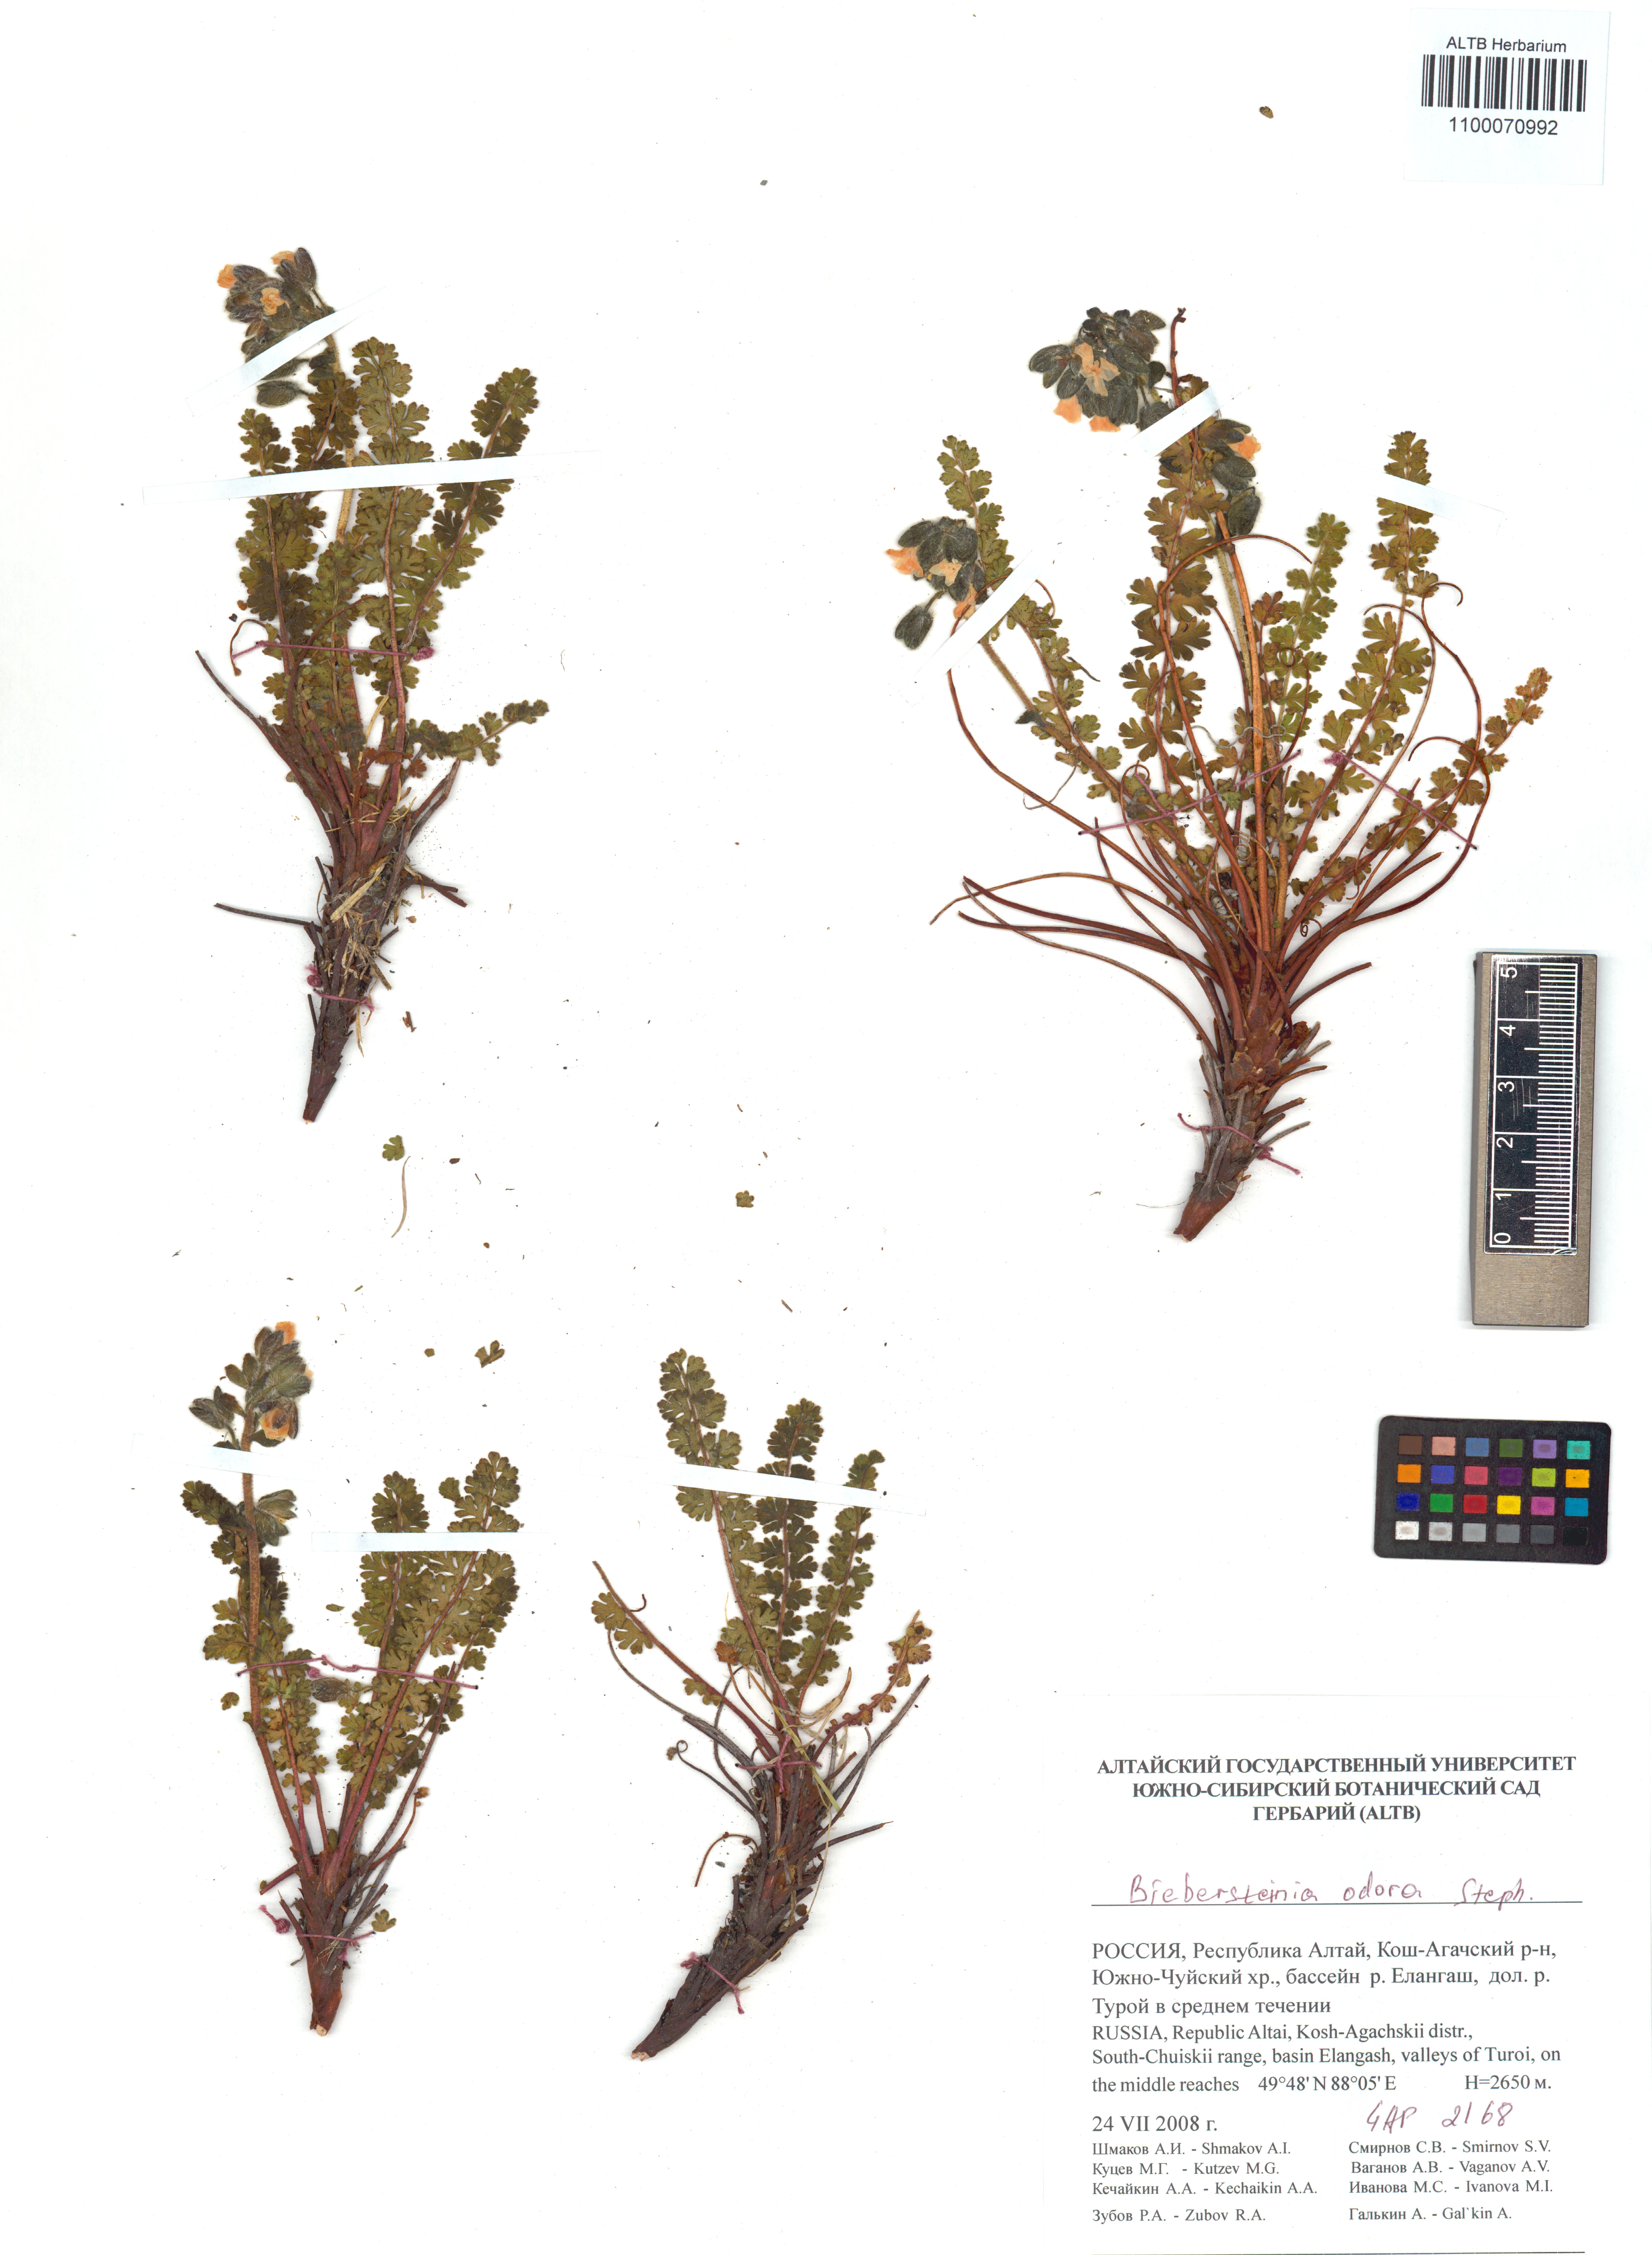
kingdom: Plantae
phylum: Tracheophyta
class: Magnoliopsida
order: Sapindales
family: Biebersteiniaceae
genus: Biebersteinia
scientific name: Biebersteinia odora
